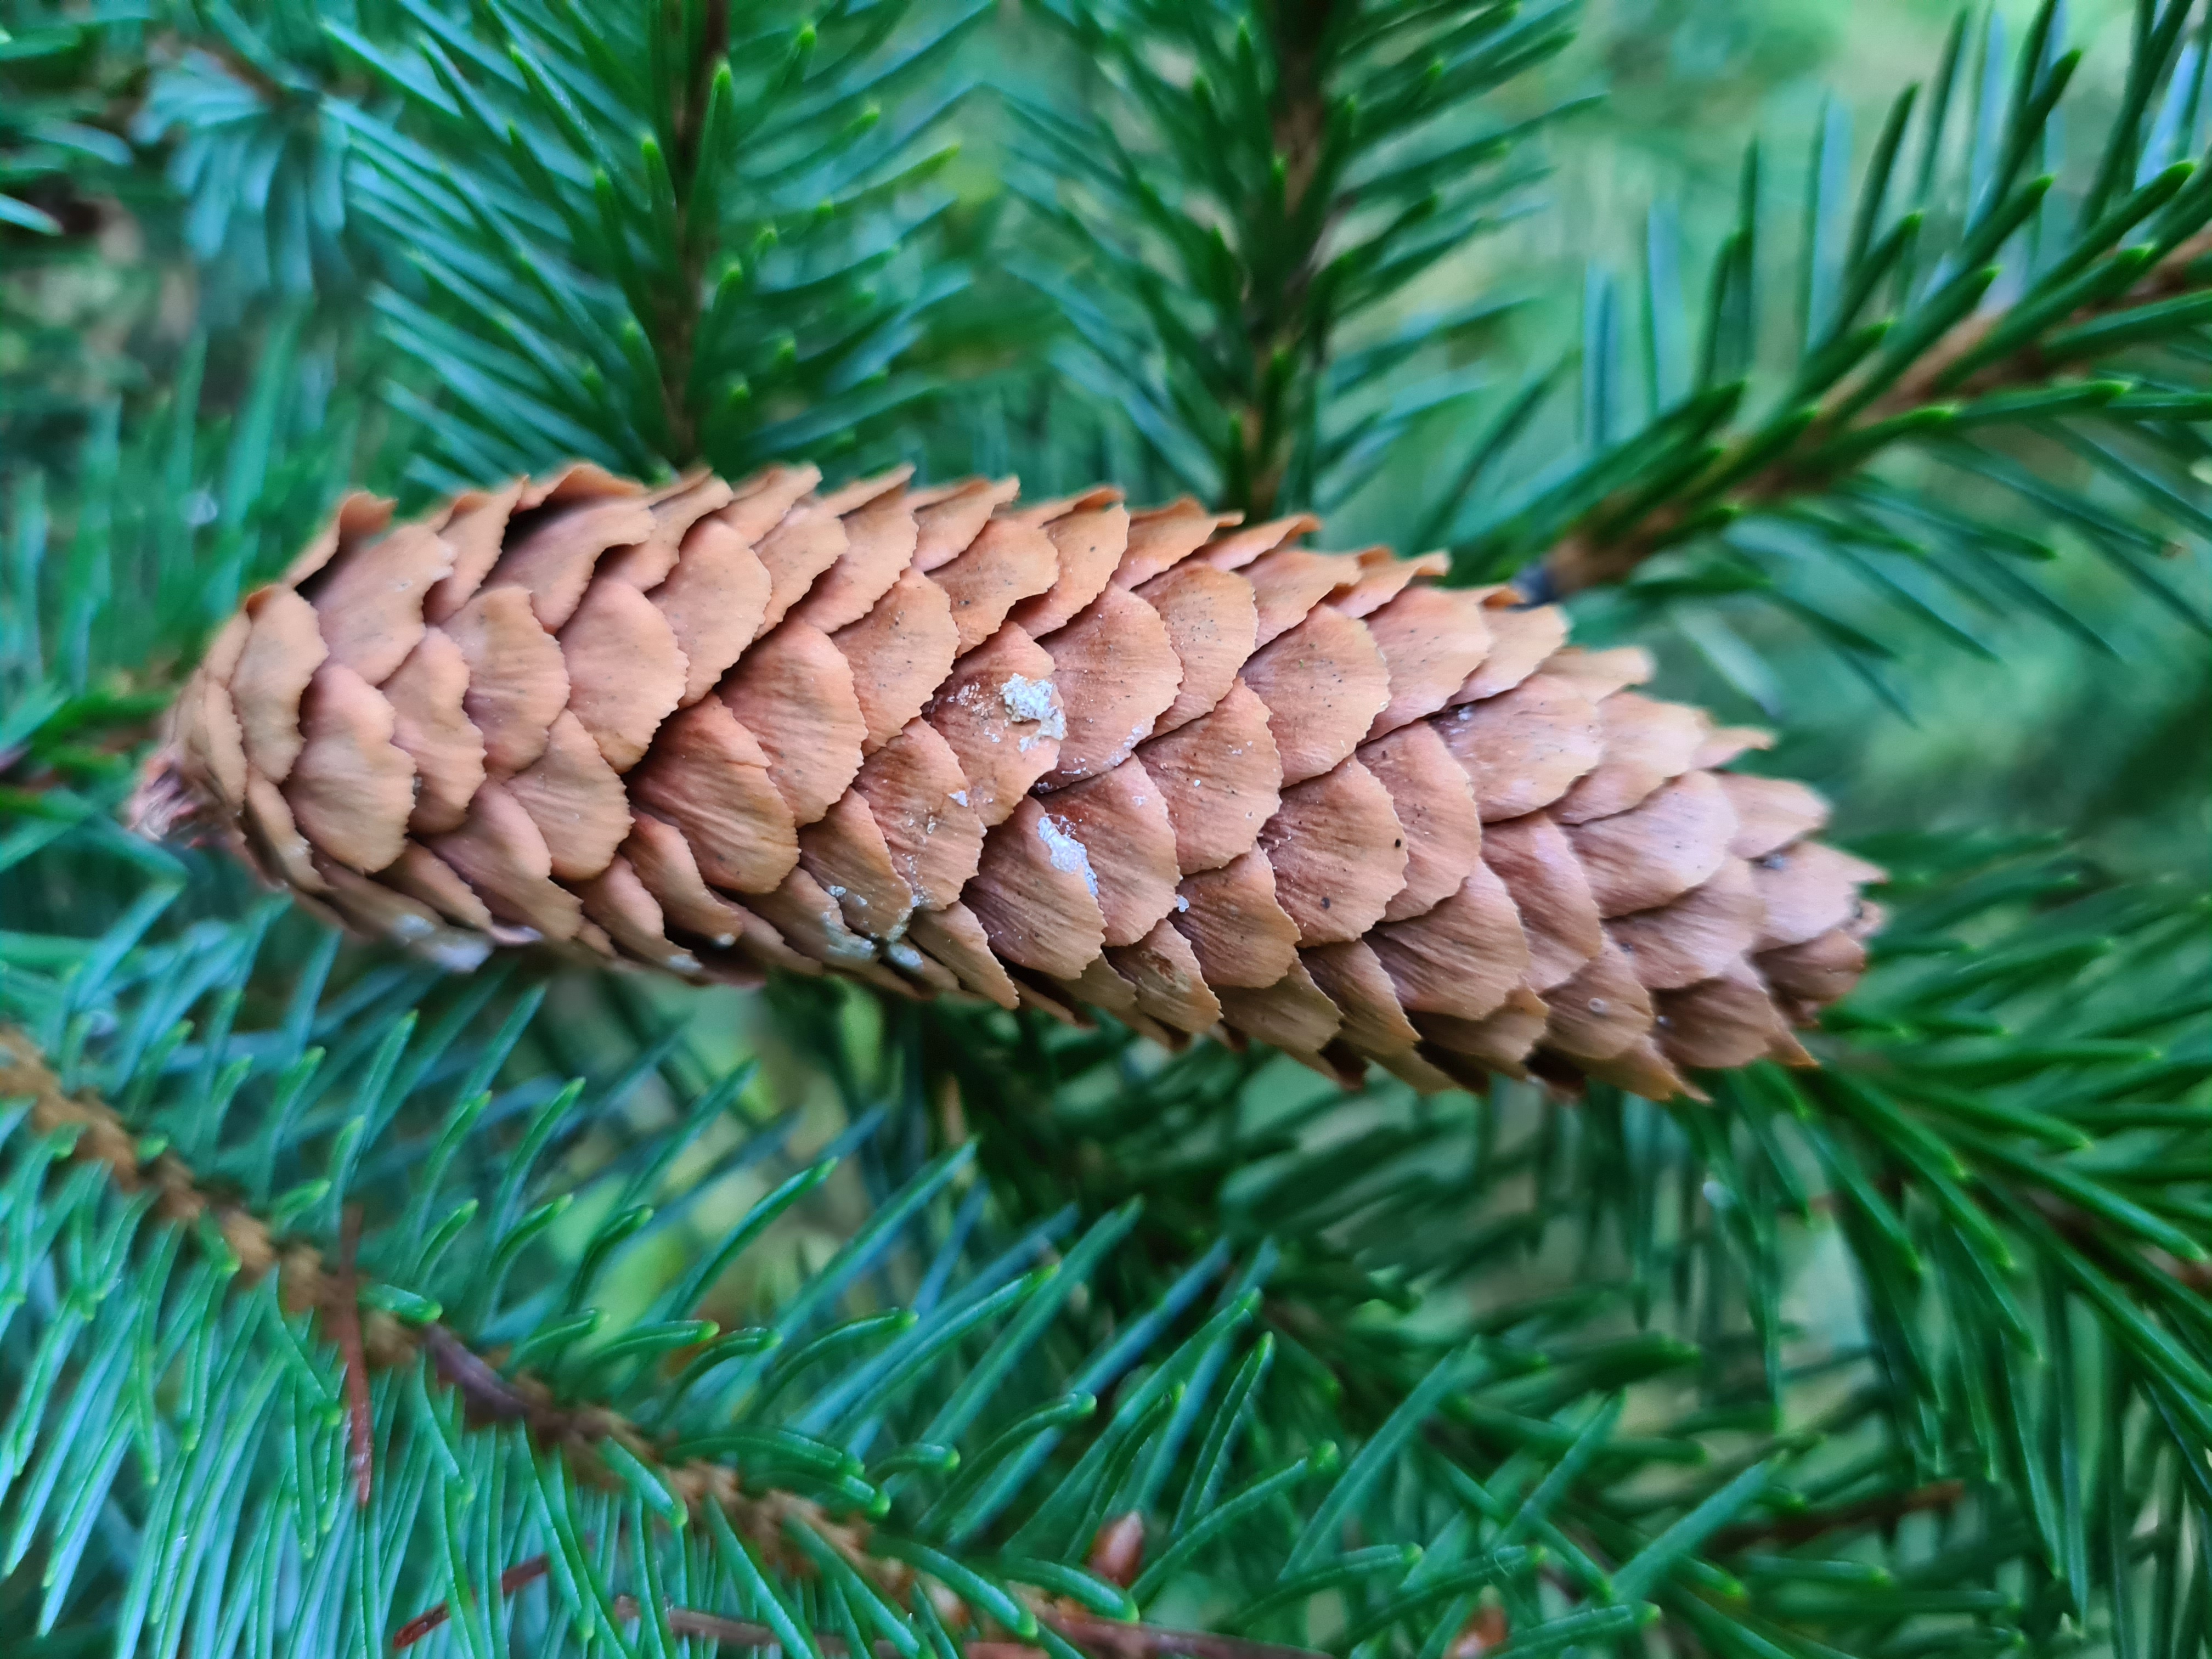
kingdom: Plantae
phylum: Tracheophyta
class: Pinopsida
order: Pinales
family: Pinaceae
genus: Picea
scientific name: Picea glauca
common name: Hvid-gran
